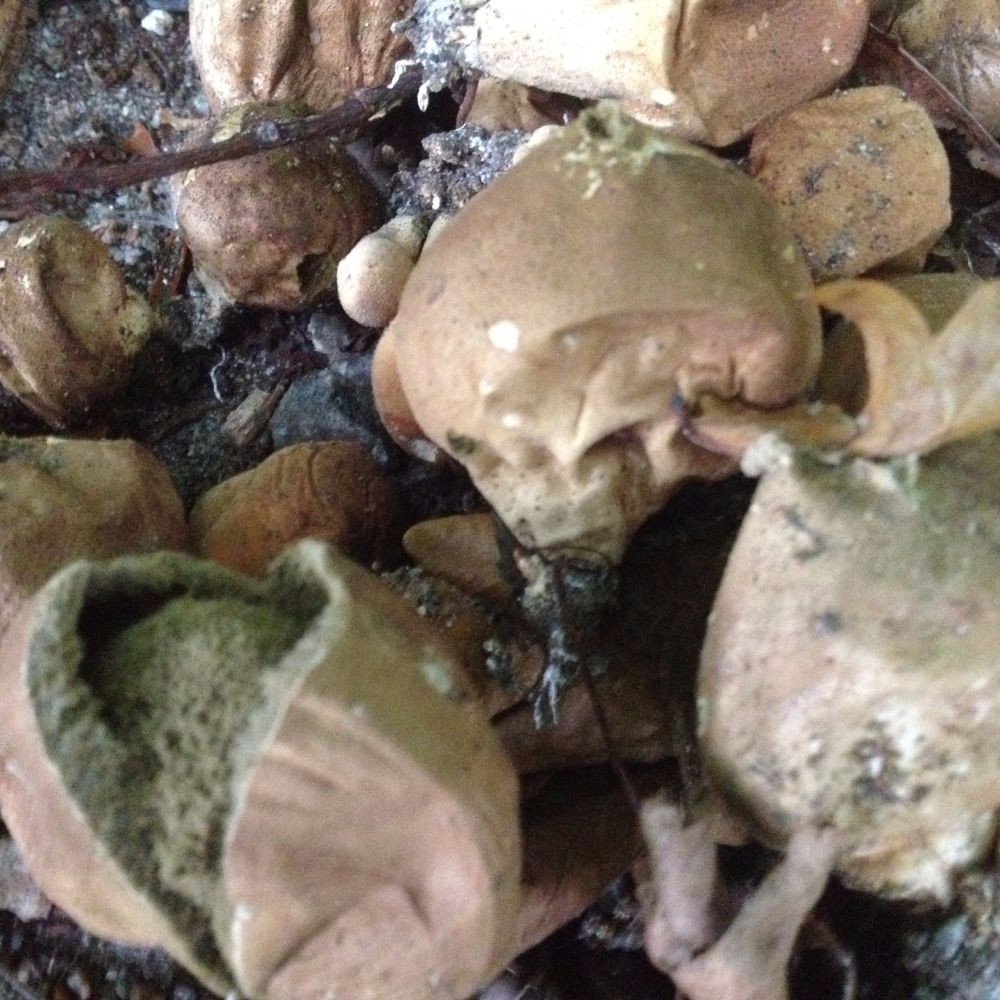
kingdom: Fungi
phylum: Basidiomycota
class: Agaricomycetes
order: Agaricales
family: Lycoperdaceae
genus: Apioperdon
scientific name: Apioperdon pyriforme
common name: pære-støvbold
